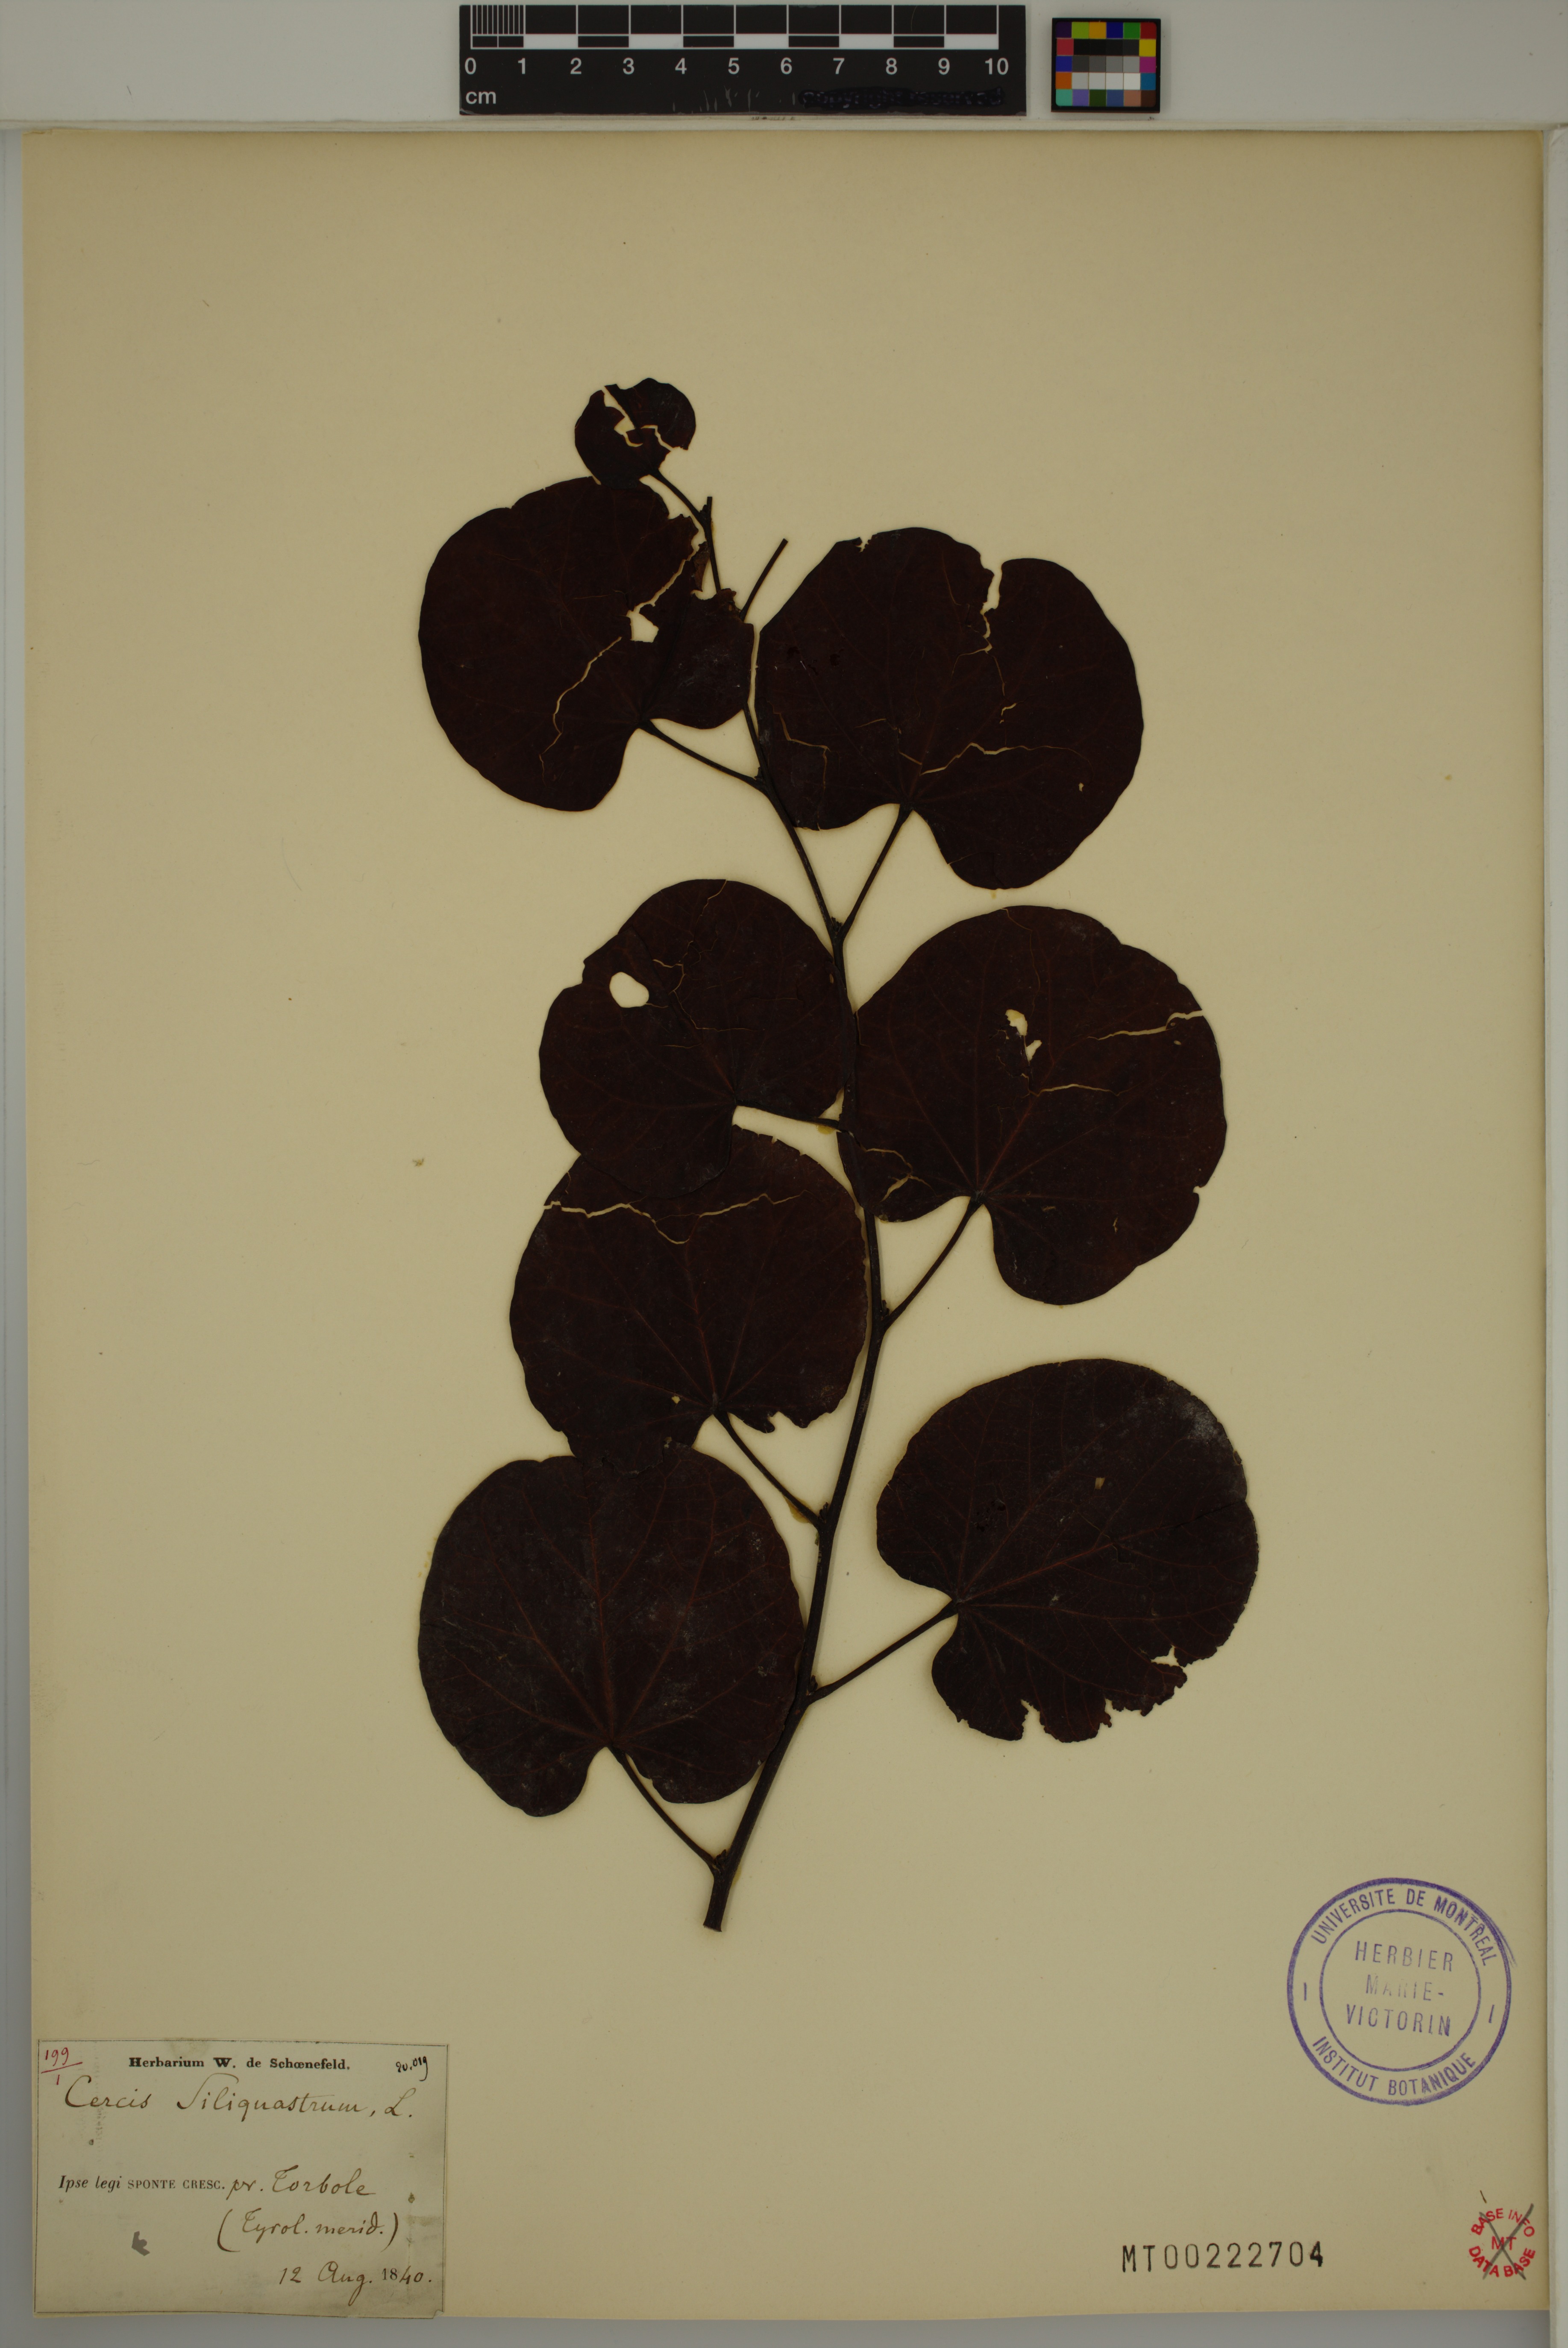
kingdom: Plantae
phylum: Tracheophyta
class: Magnoliopsida
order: Fabales
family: Fabaceae
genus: Cercis
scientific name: Cercis siliquastrum
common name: Judas tree
